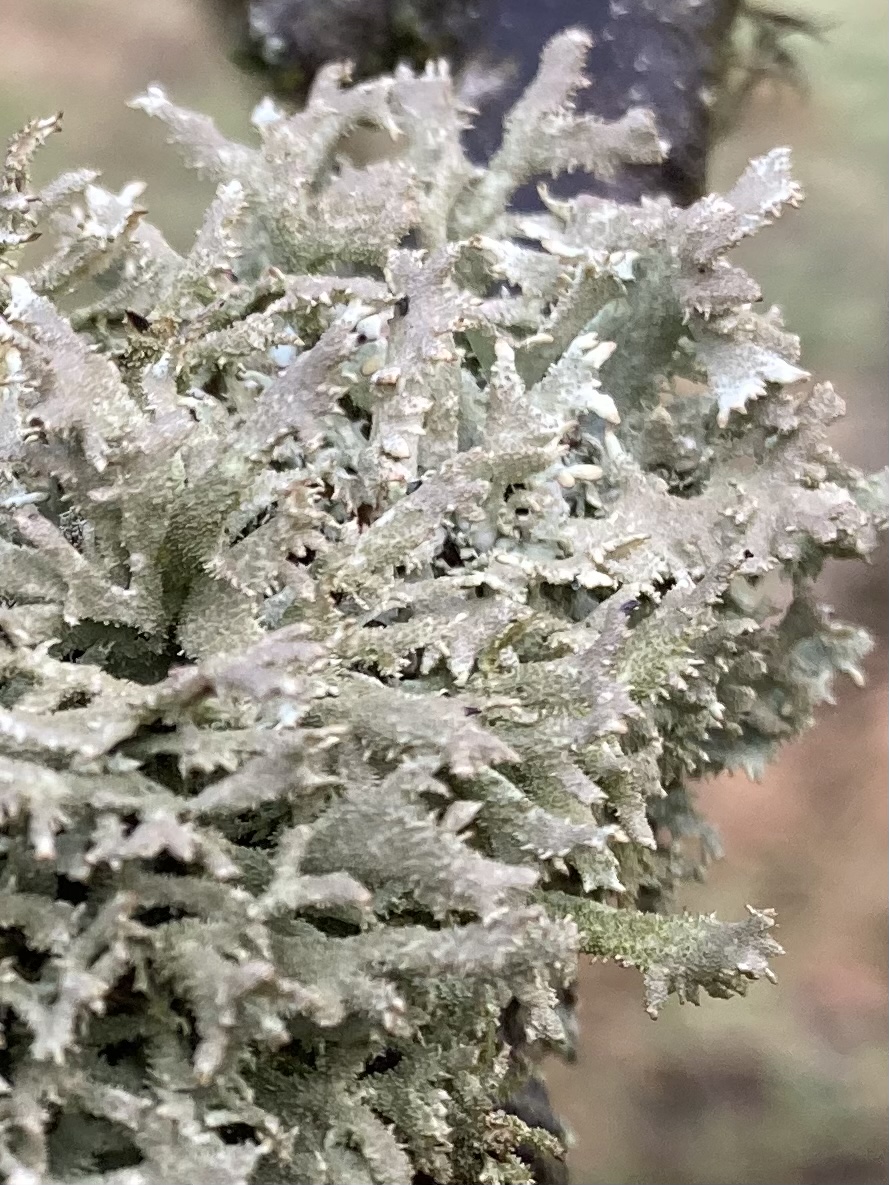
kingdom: Fungi
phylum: Ascomycota
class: Lecanoromycetes
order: Lecanorales
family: Parmeliaceae
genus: Pseudevernia
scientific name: Pseudevernia furfuracea
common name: grå fyrrelav
